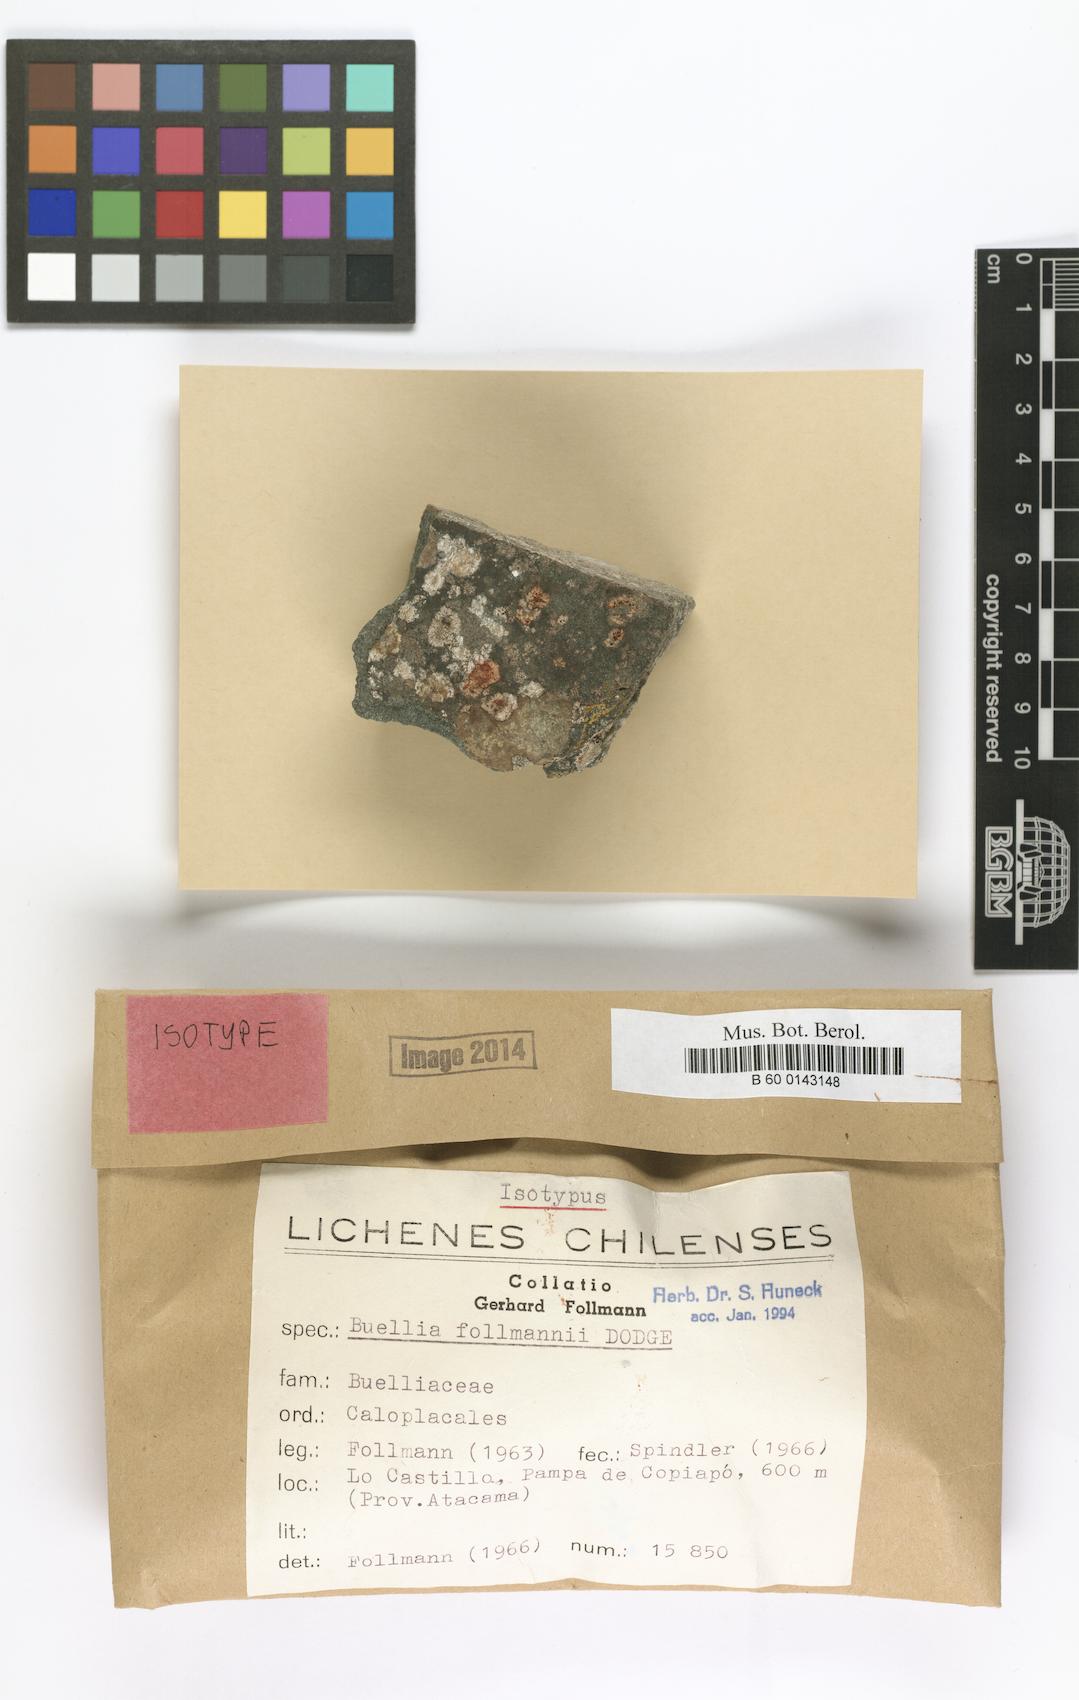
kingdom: Fungi
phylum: Ascomycota
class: Lecanoromycetes
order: Caliciales
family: Physciaceae
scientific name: Physciaceae
